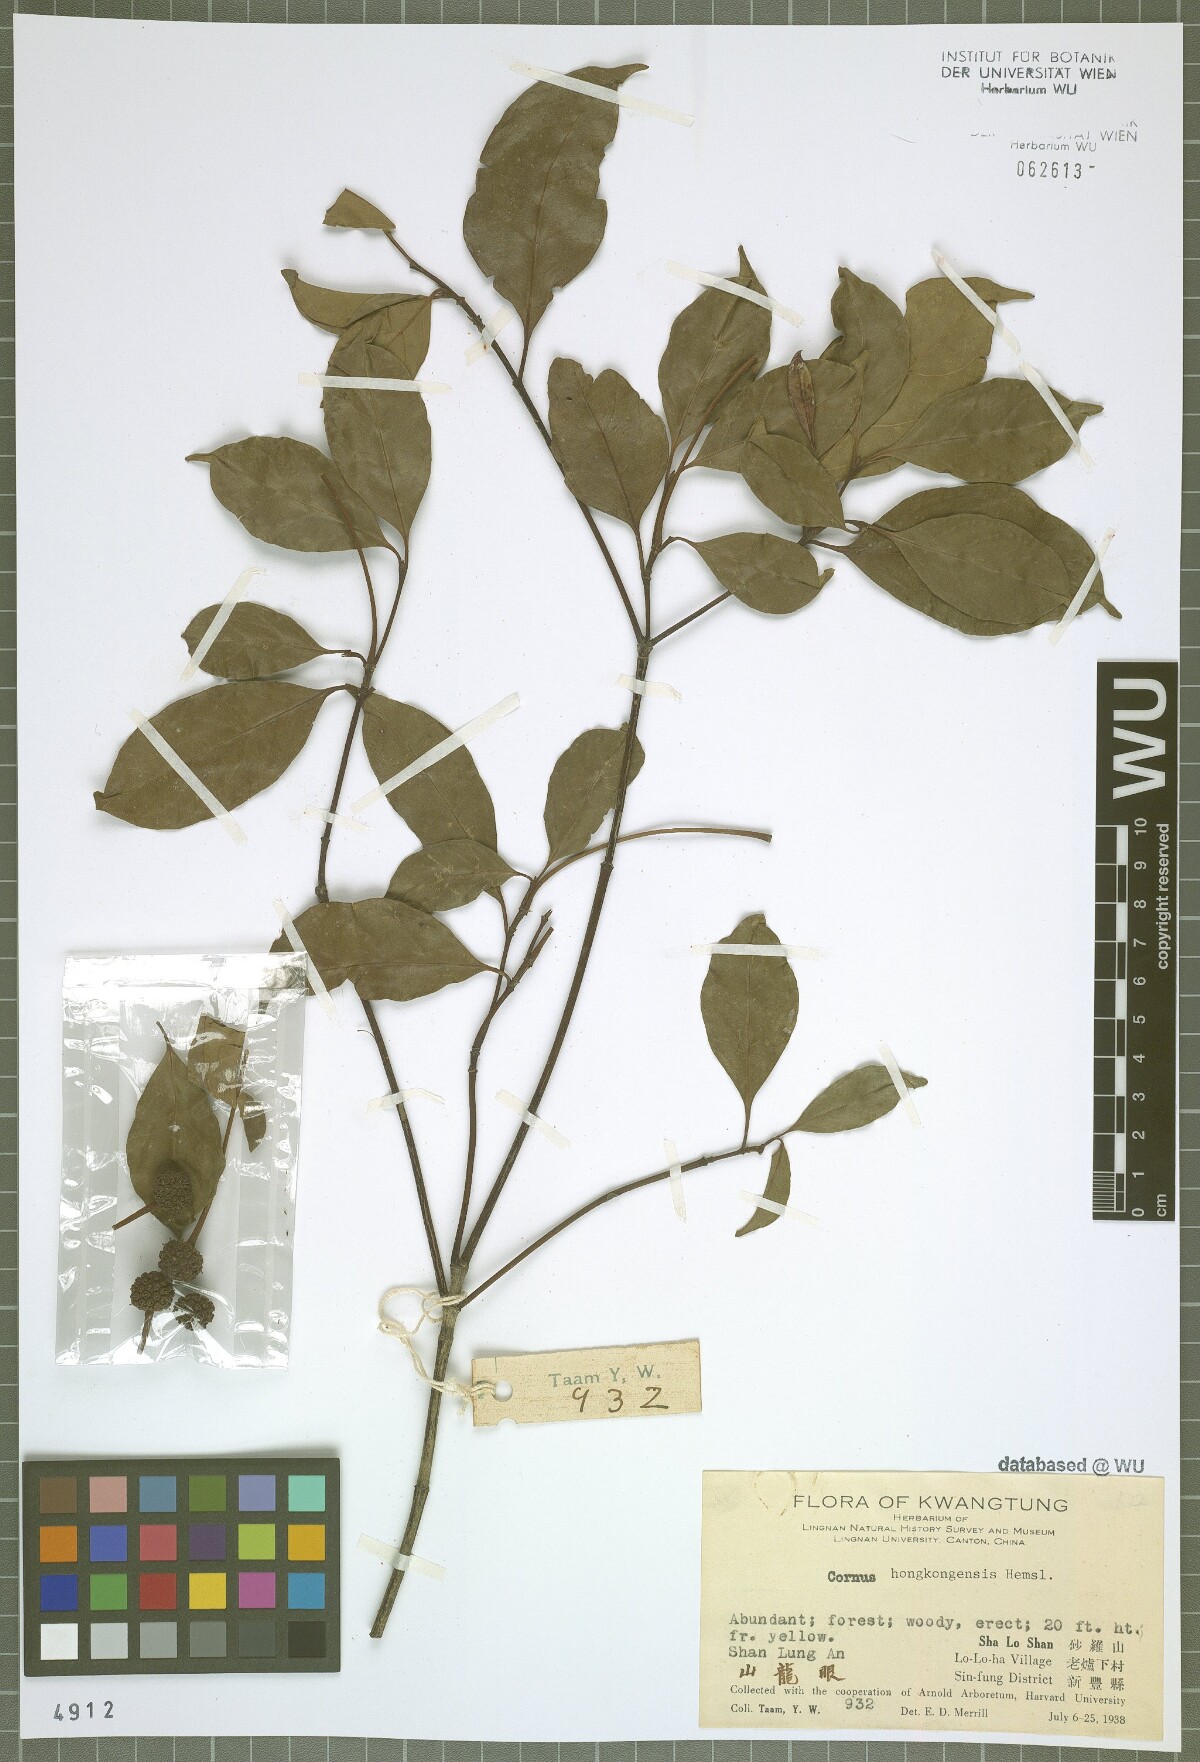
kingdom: Plantae
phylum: Tracheophyta
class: Magnoliopsida
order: Cornales
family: Cornaceae
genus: Cornus
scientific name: Cornus hongkongensis
